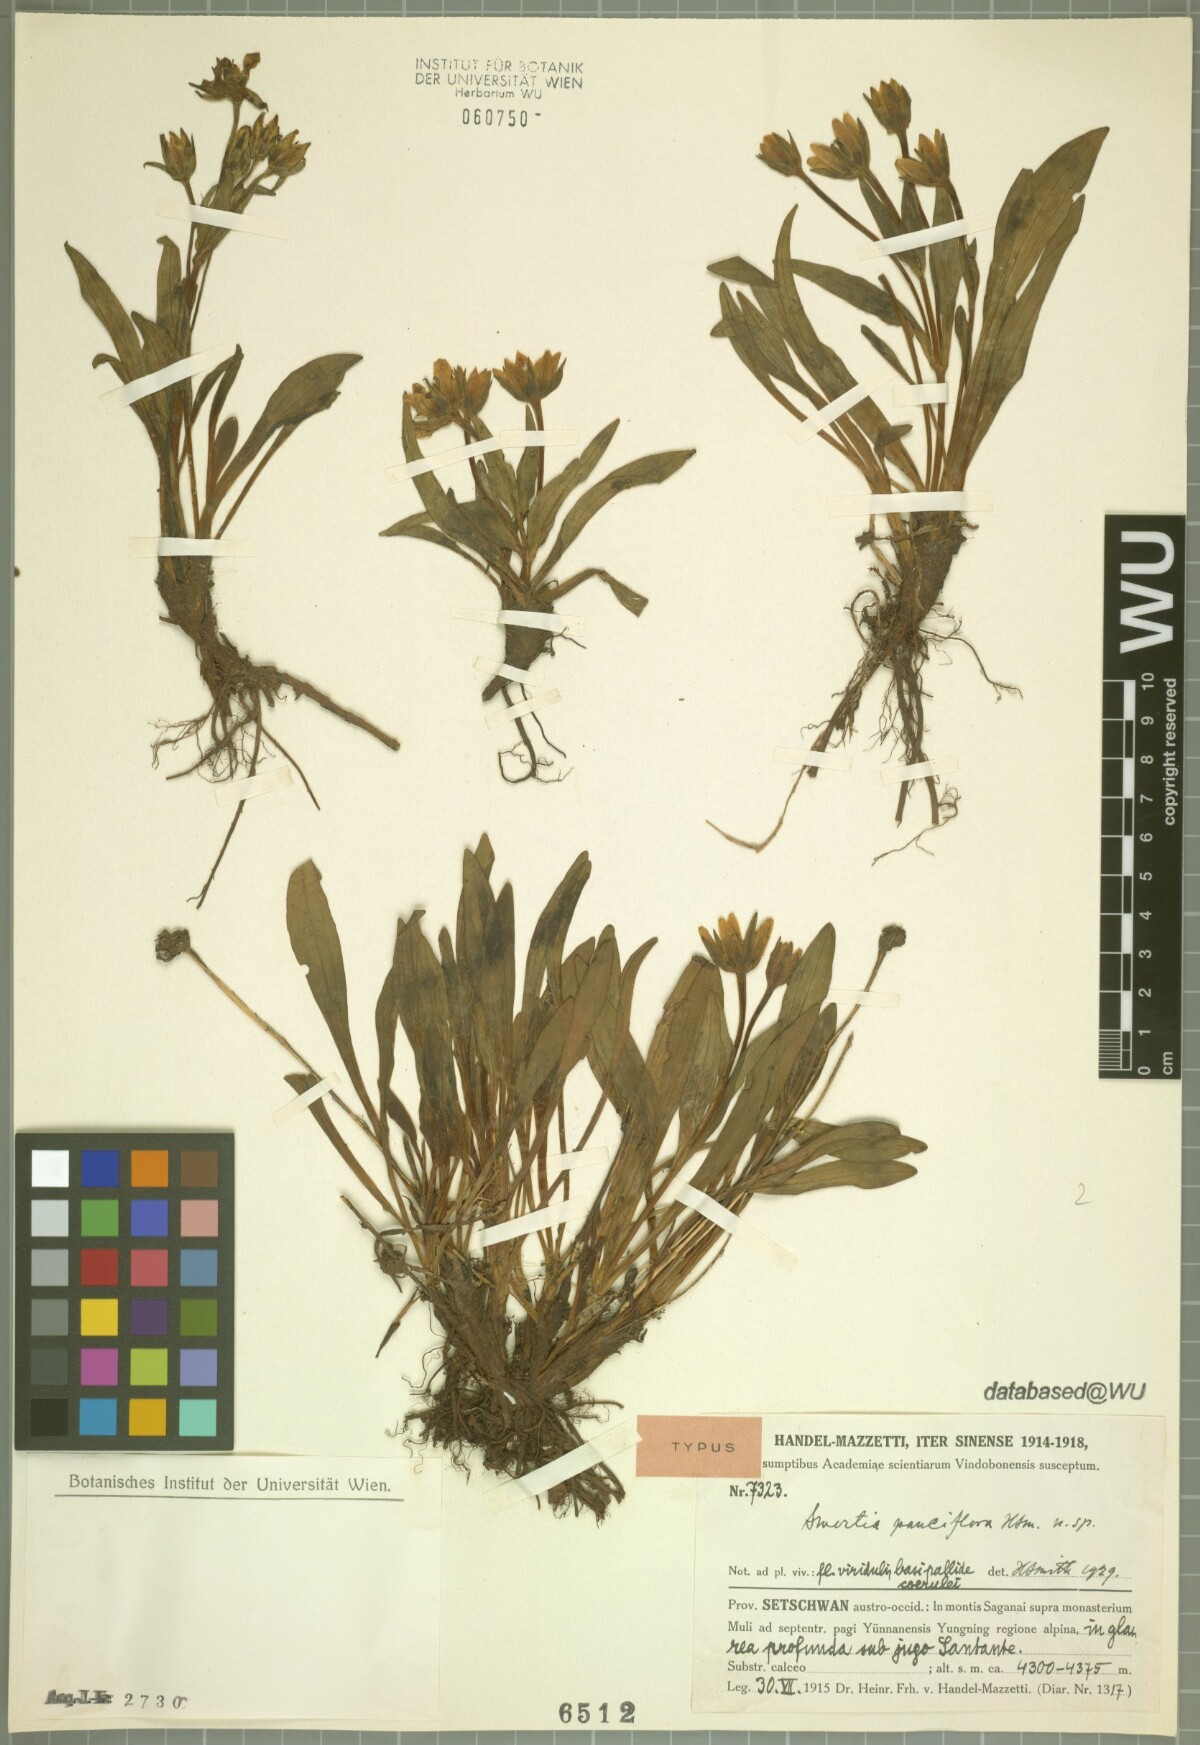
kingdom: Plantae
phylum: Tracheophyta
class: Magnoliopsida
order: Gentianales
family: Gentianaceae
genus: Swertia
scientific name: Swertia
